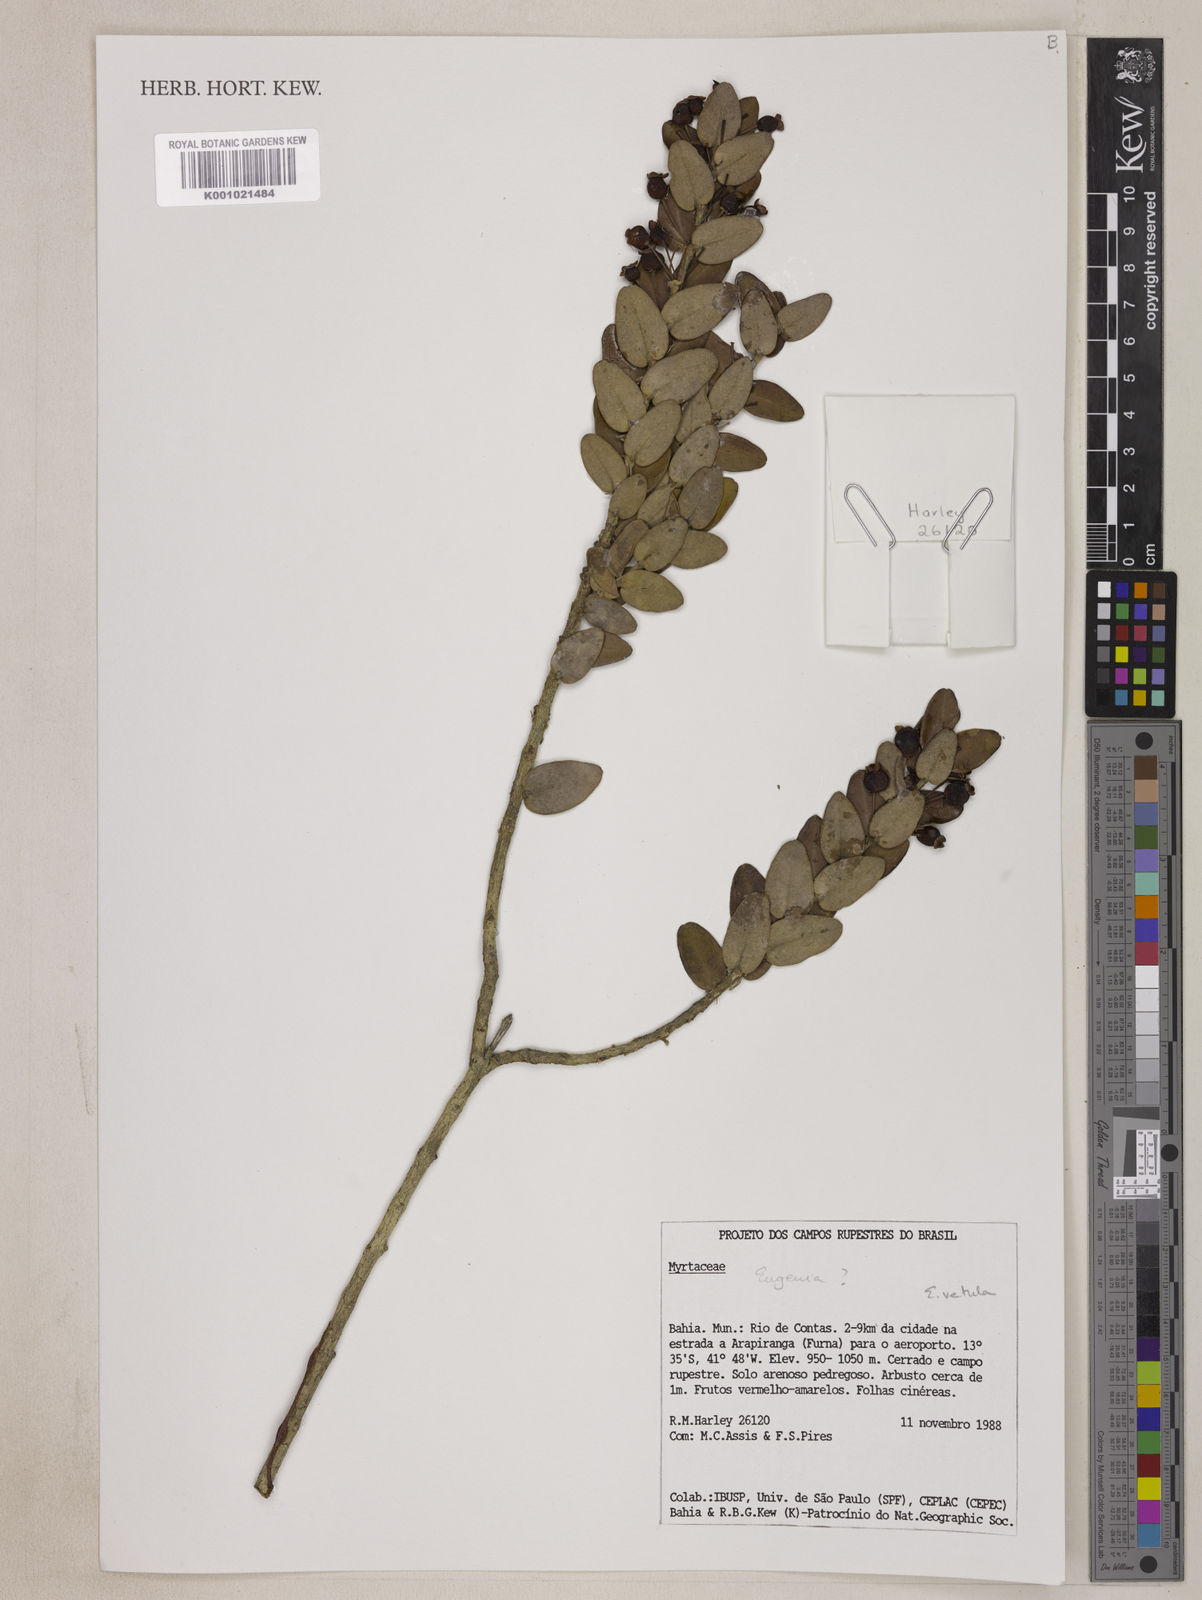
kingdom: Plantae
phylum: Tracheophyta
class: Magnoliopsida
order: Myrtales
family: Myrtaceae
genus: Eugenia
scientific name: Eugenia vetula
